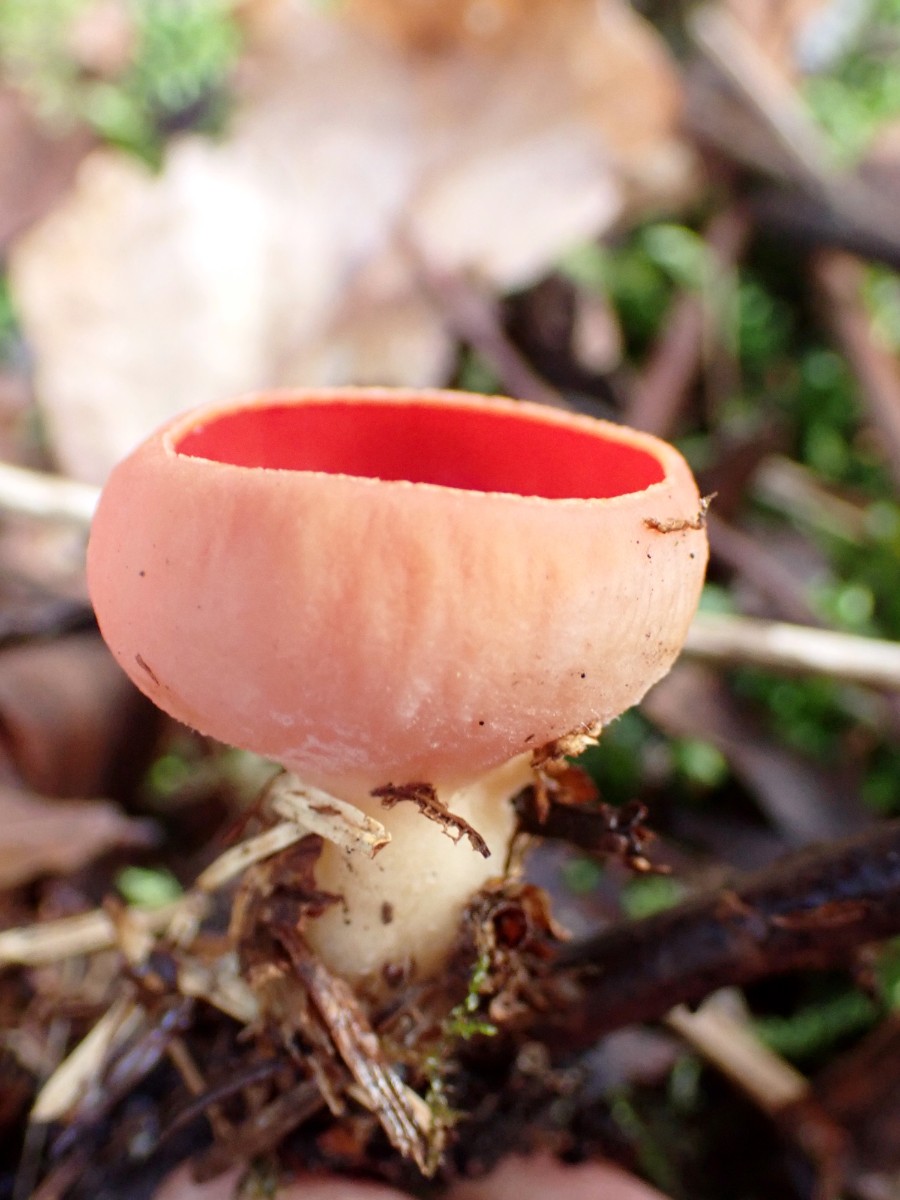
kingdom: Fungi
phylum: Ascomycota
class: Pezizomycetes
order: Pezizales
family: Sarcoscyphaceae
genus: Sarcoscypha
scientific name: Sarcoscypha austriaca
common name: krølhåret pragtbæger
